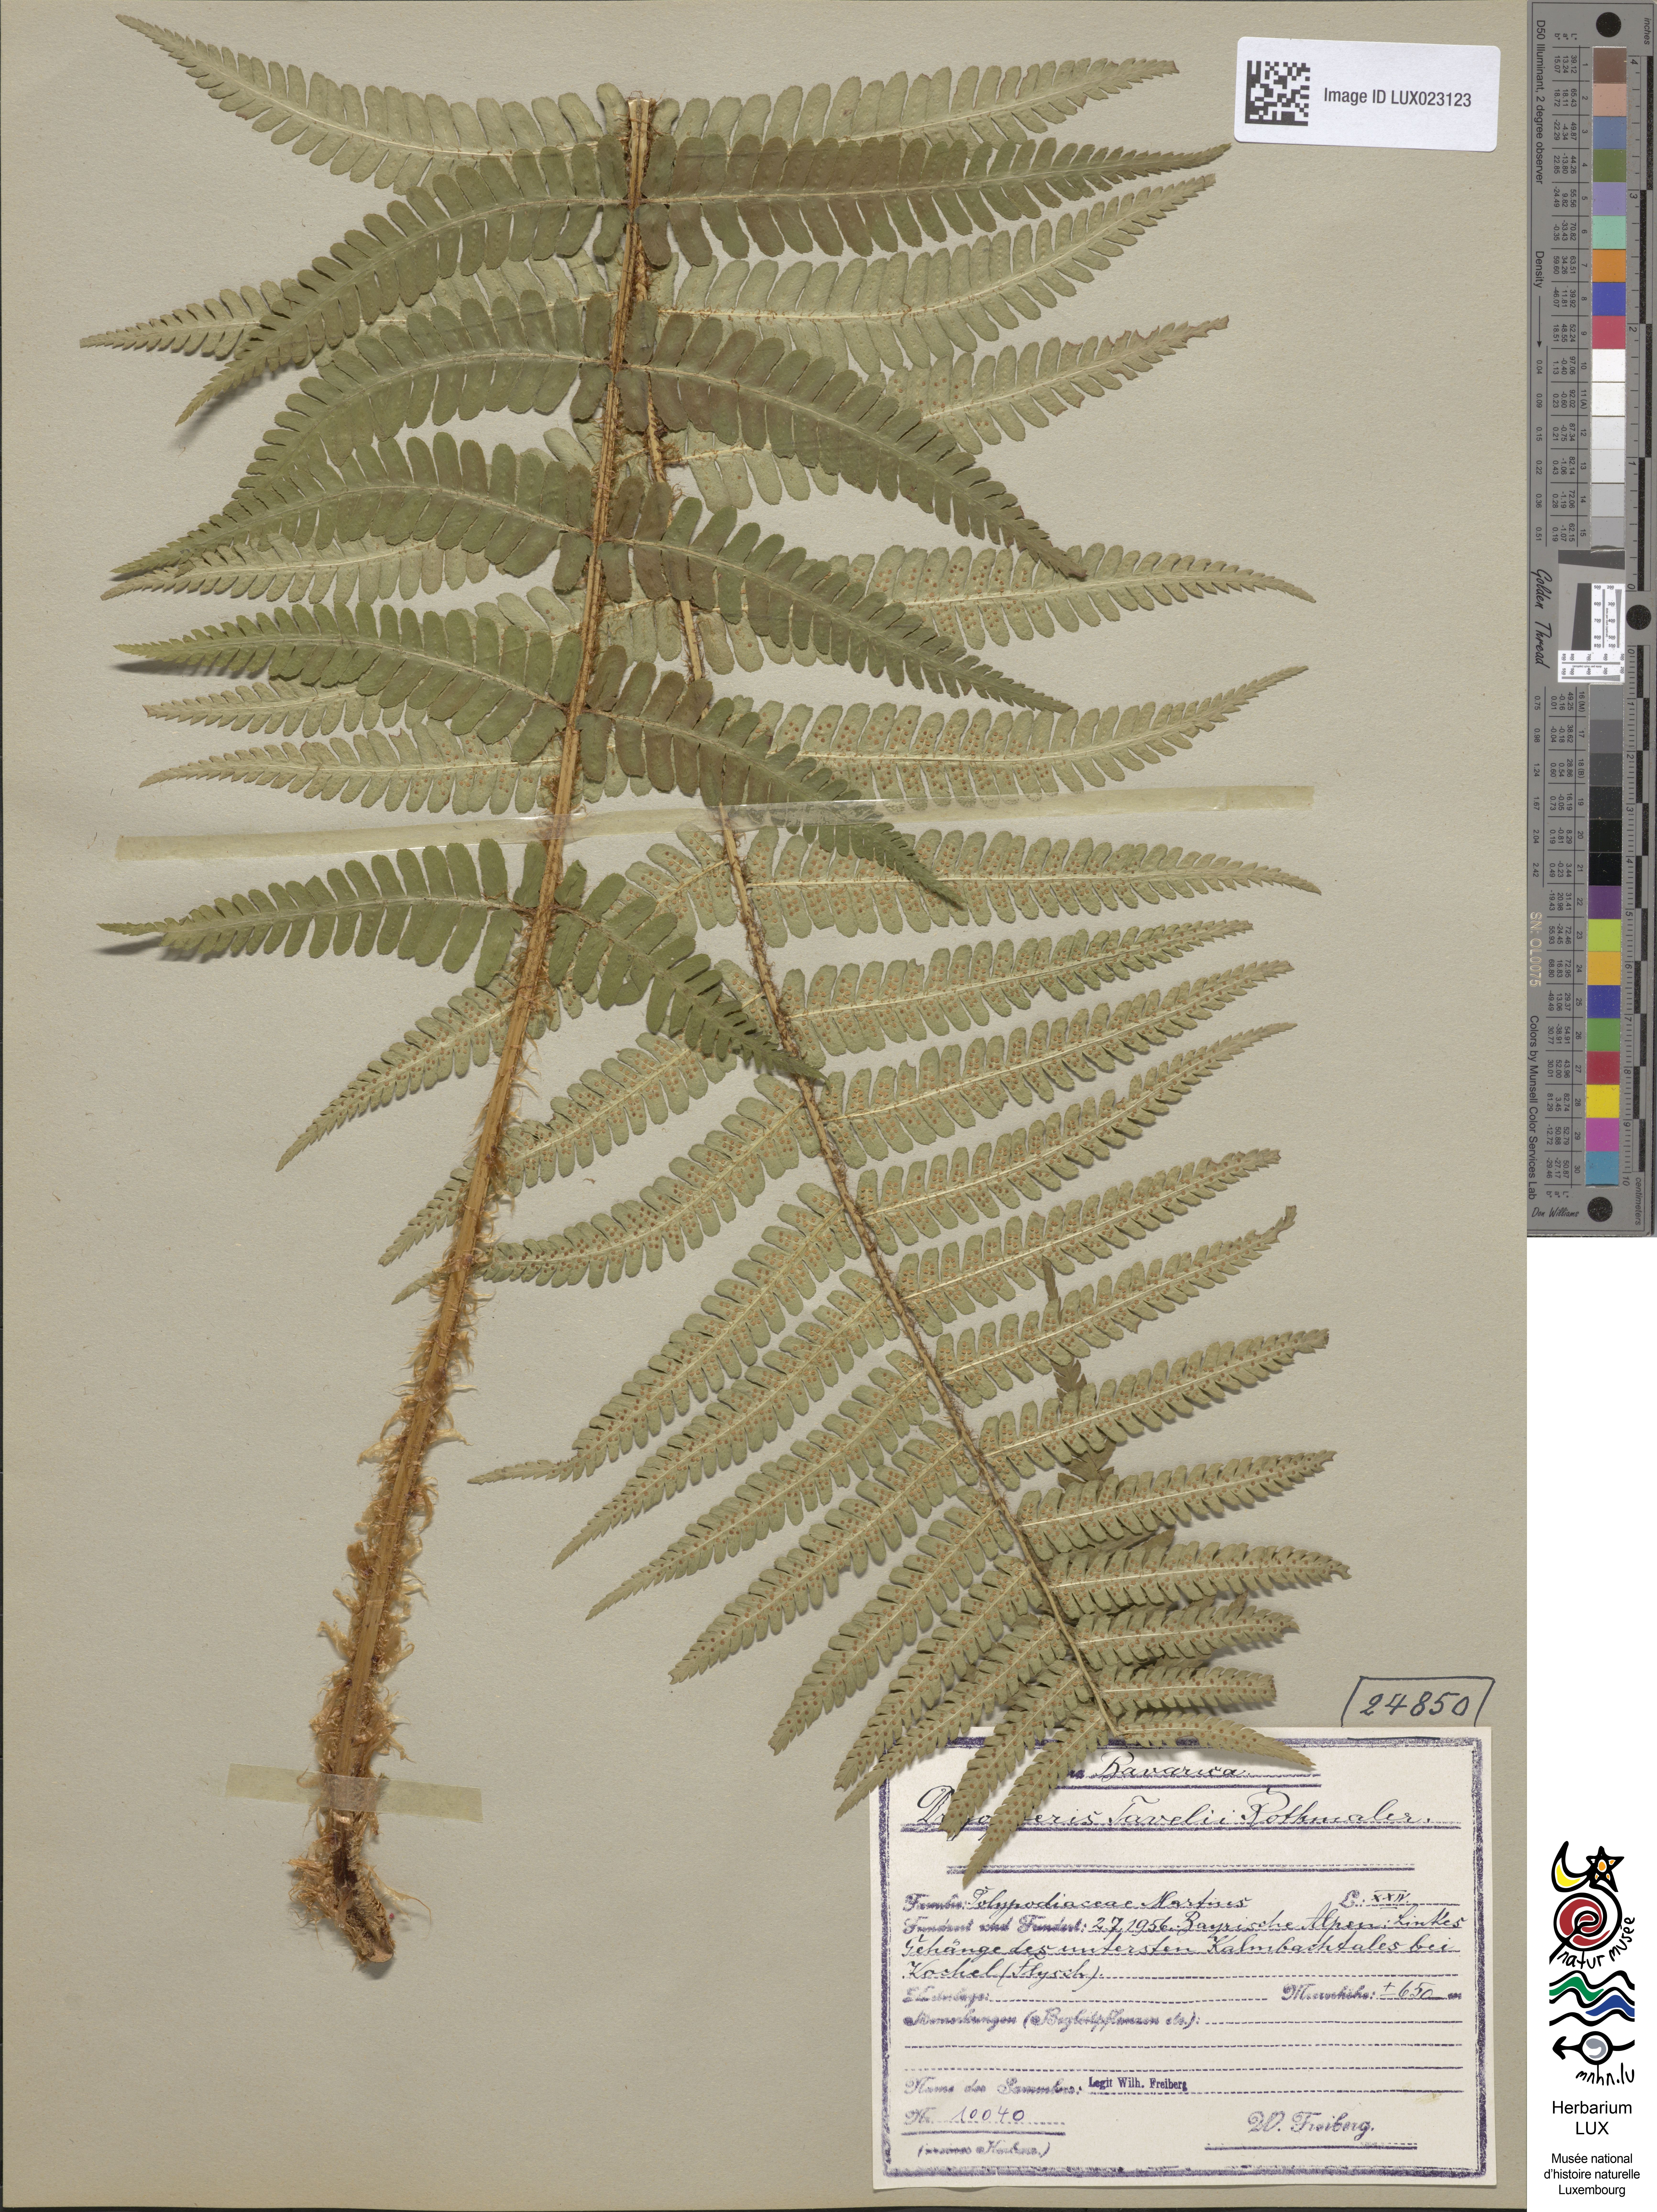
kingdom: Plantae
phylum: Tracheophyta
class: Polypodiopsida
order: Polypodiales
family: Dryopteridaceae
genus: Dryopteris
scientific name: Dryopteris borreri
